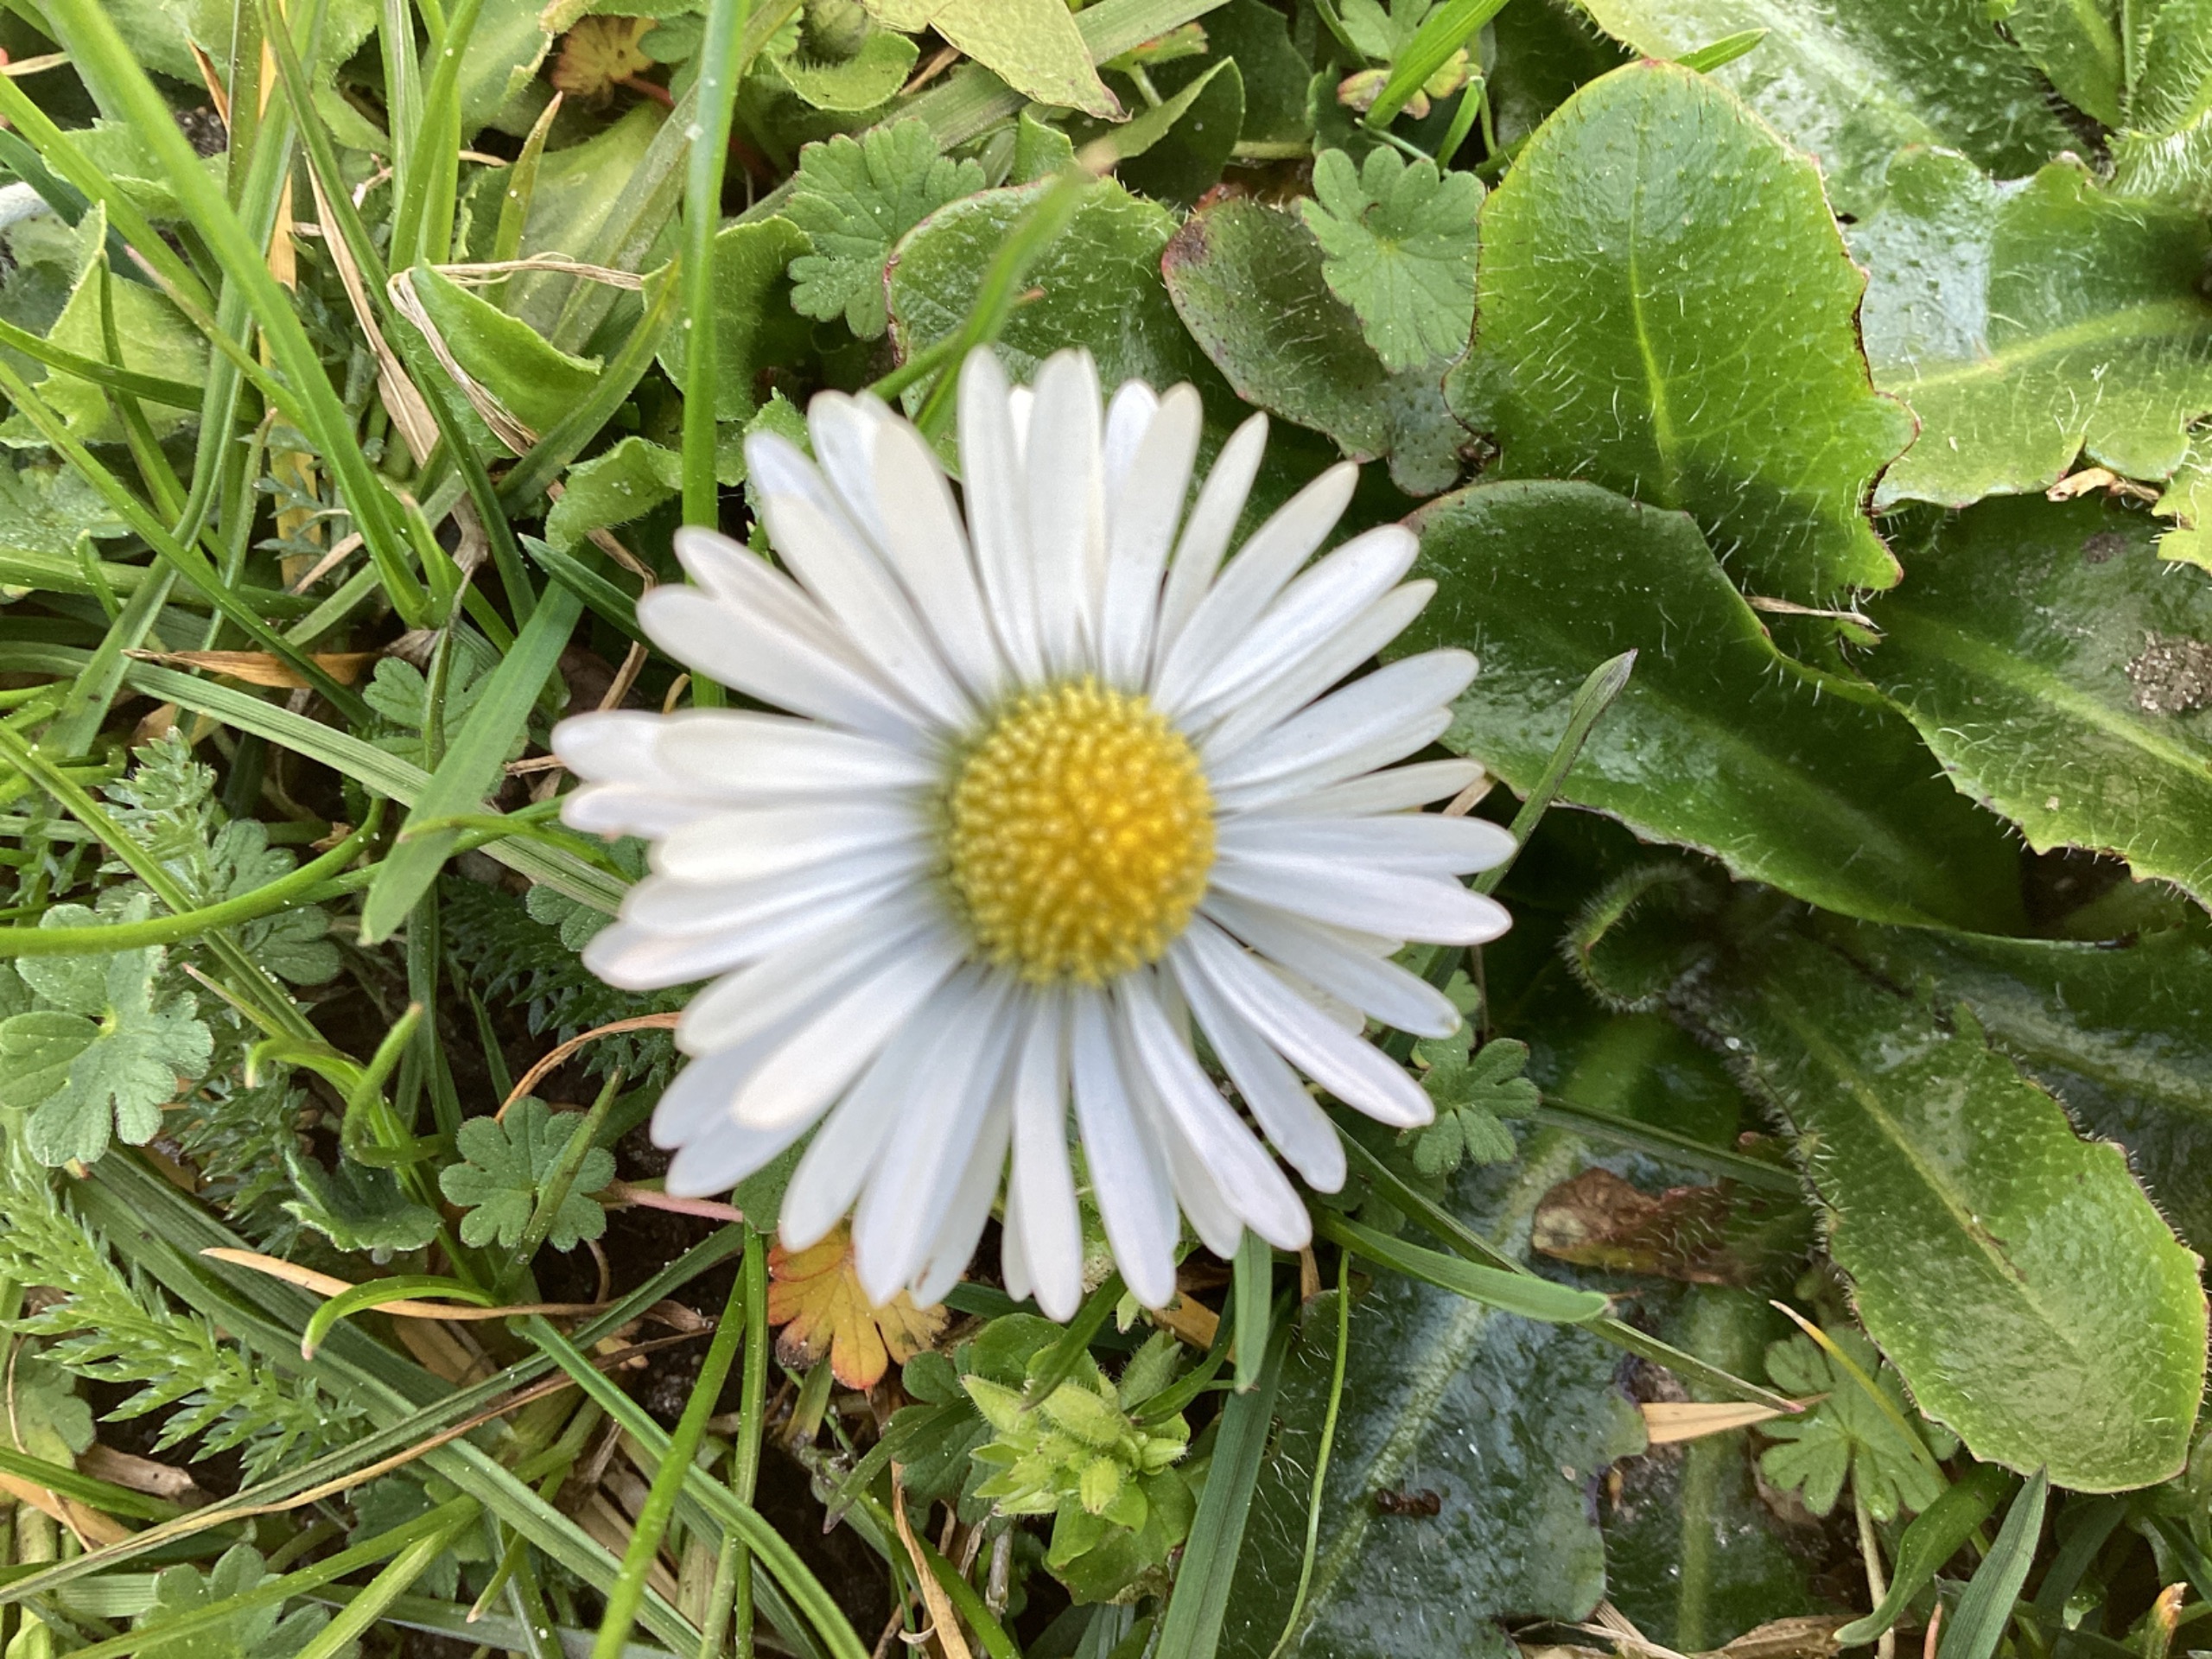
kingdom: Plantae
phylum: Tracheophyta
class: Magnoliopsida
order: Asterales
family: Asteraceae
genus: Bellis
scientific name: Bellis perennis
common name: Tusindfryd
